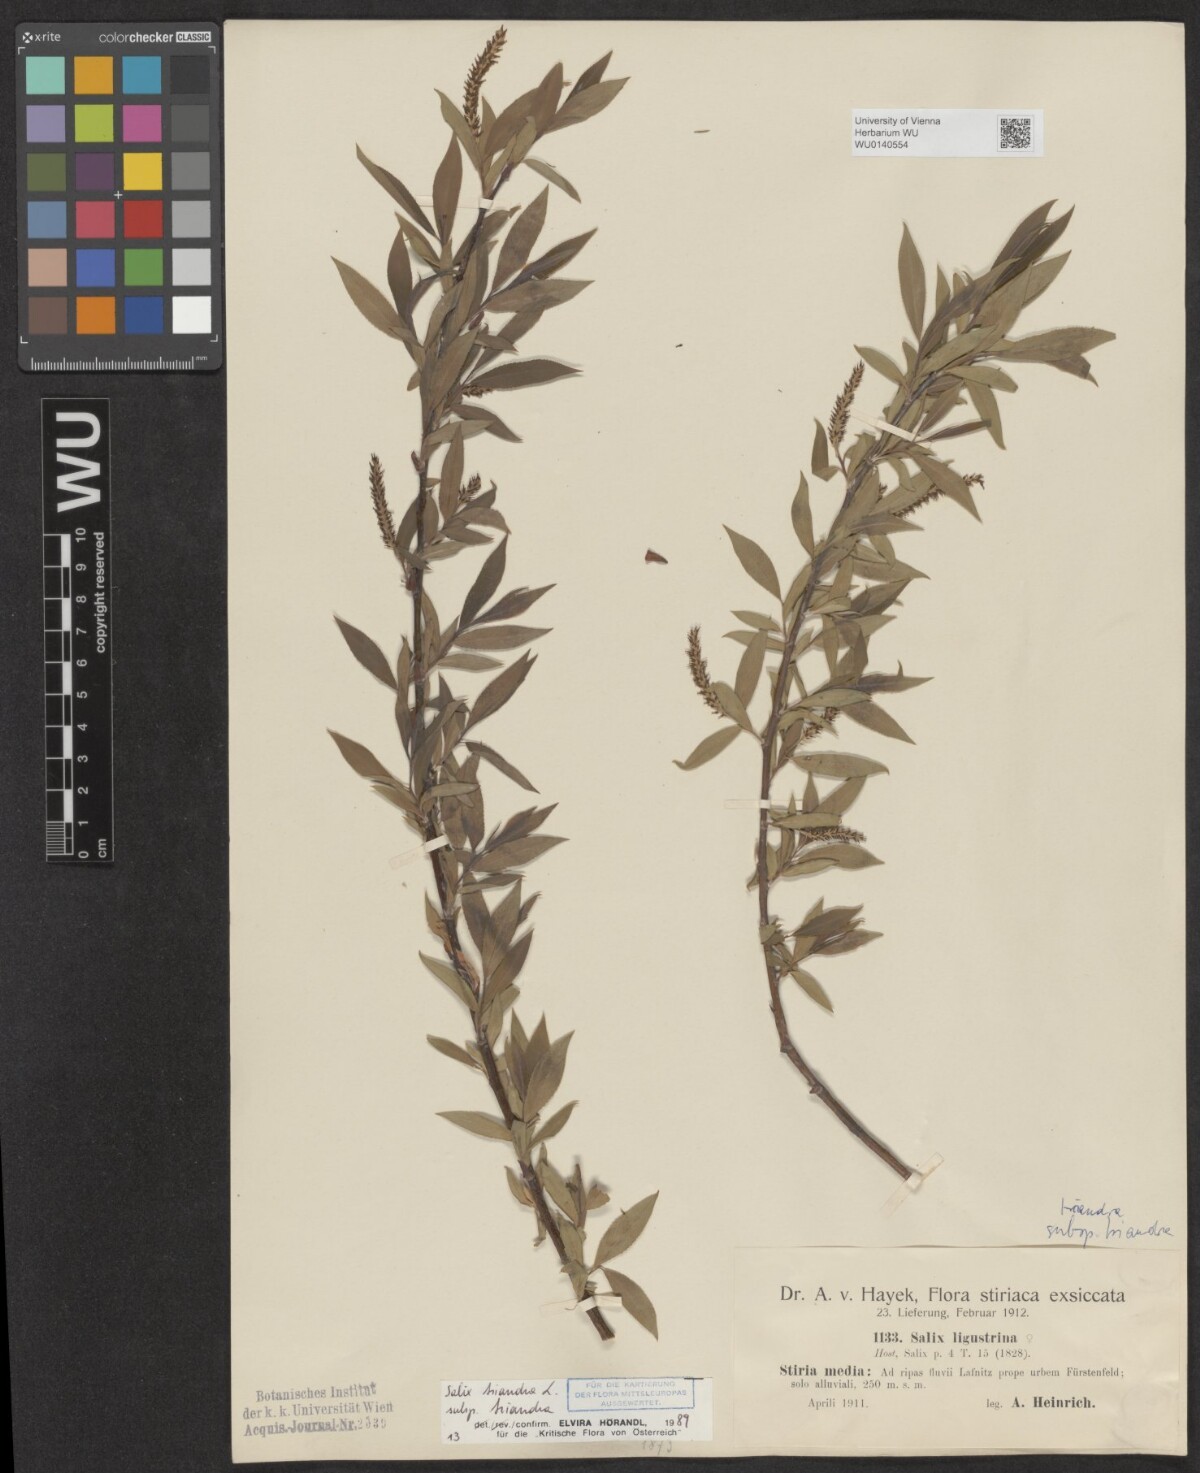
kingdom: Plantae
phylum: Tracheophyta
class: Magnoliopsida
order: Malpighiales
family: Salicaceae
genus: Salix
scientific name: Salix triandra
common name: Almond willow
